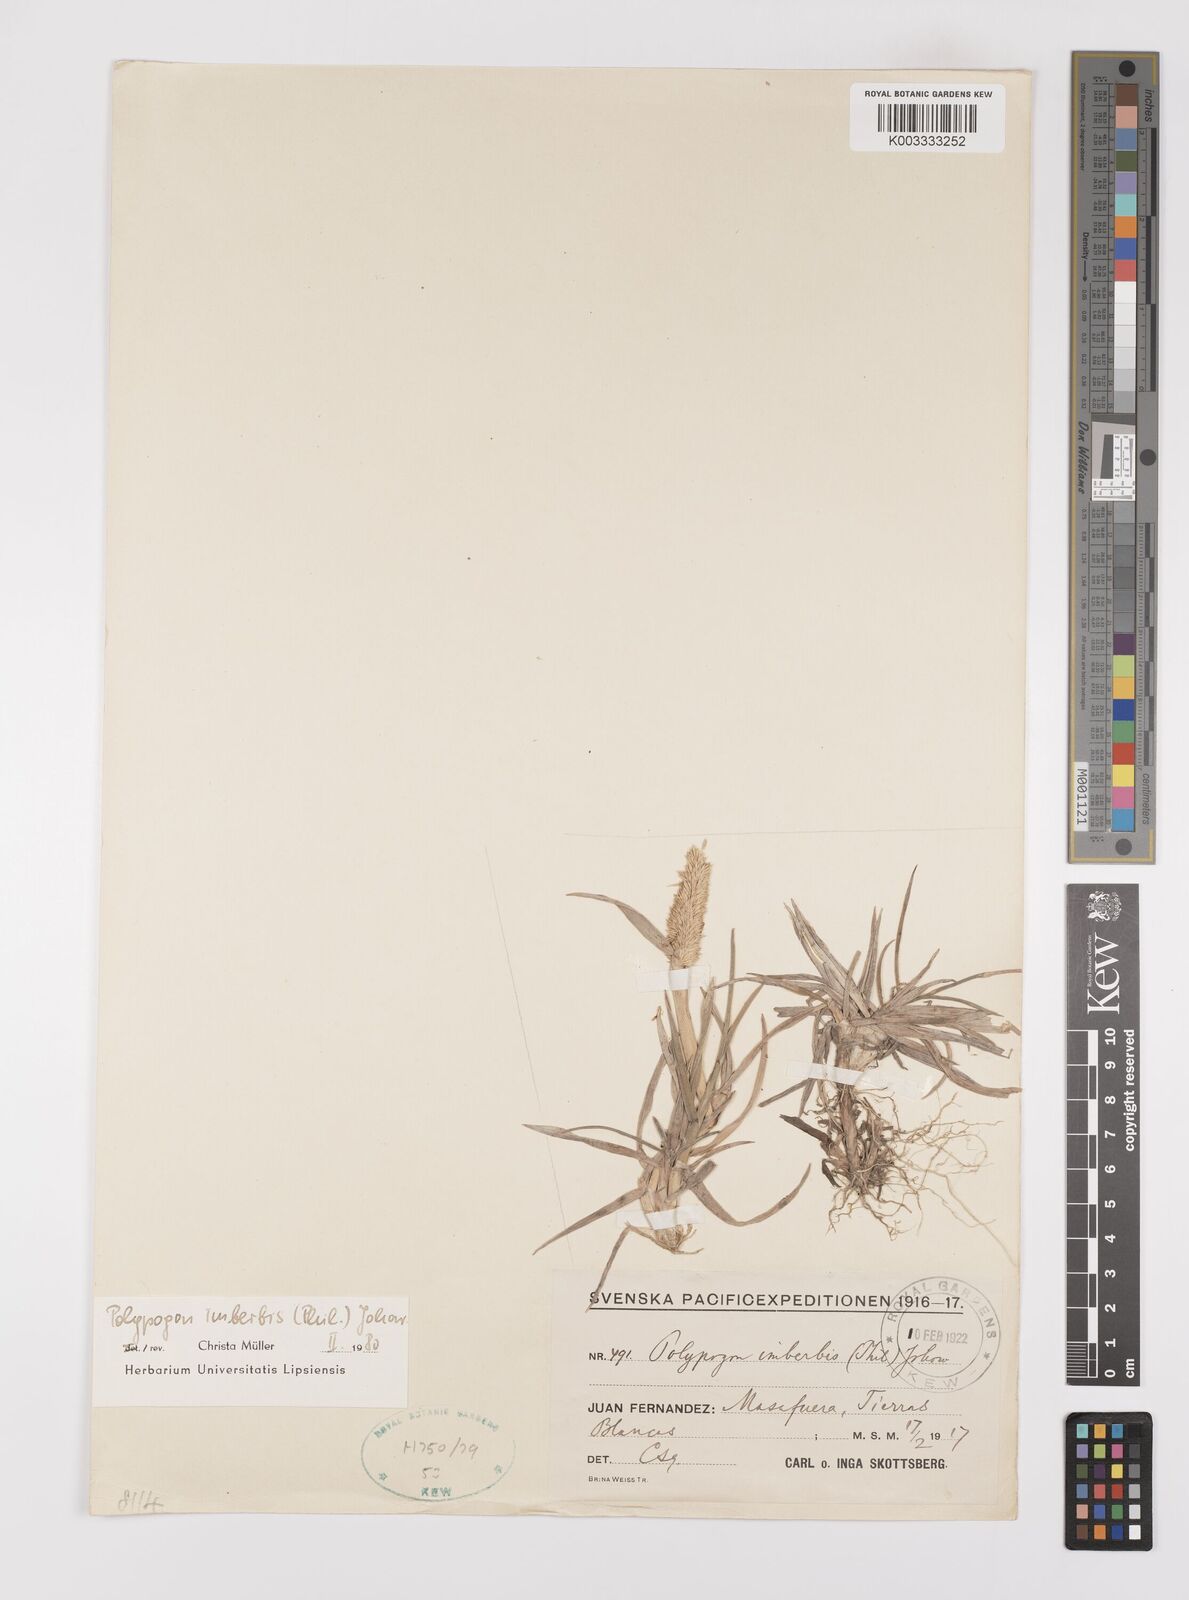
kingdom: Plantae
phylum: Tracheophyta
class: Liliopsida
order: Poales
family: Poaceae
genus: Polypogon
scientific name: Polypogon imberbis
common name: Beardless rabbitsfoot grass
